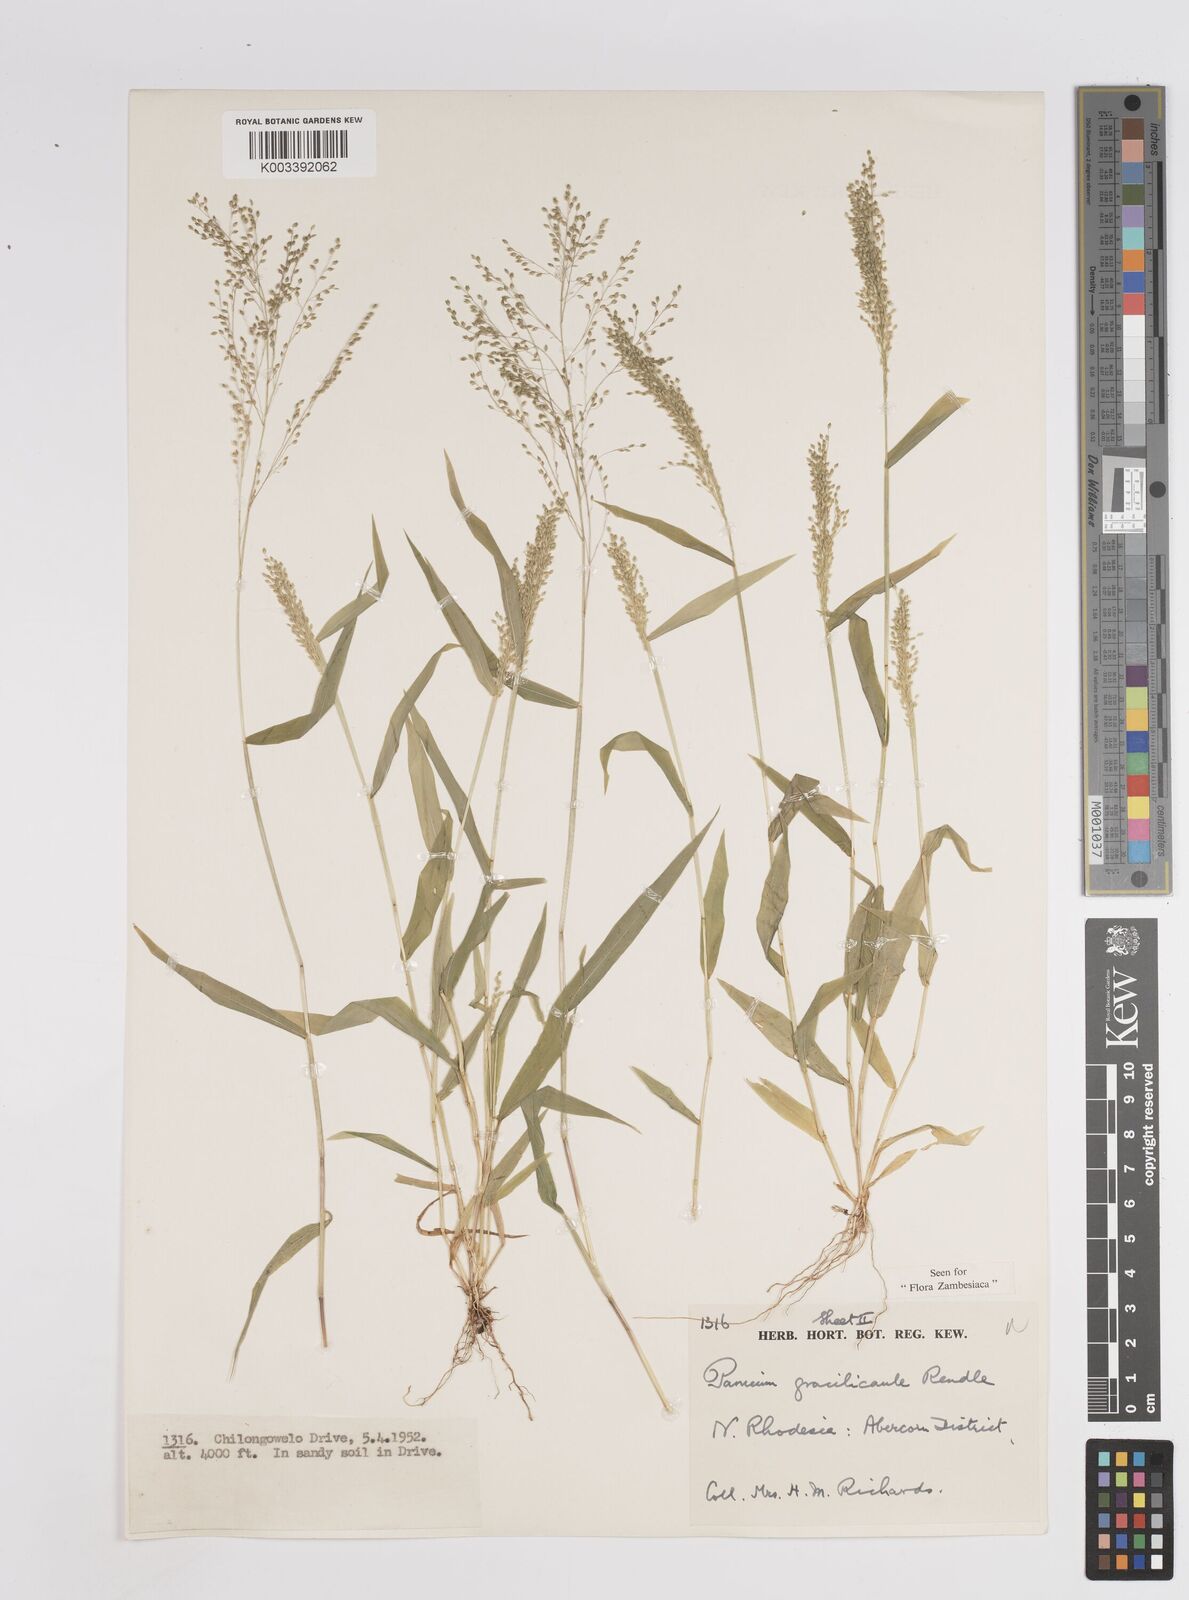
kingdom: Plantae
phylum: Tracheophyta
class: Liliopsida
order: Poales
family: Poaceae
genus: Trichanthecium
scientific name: Trichanthecium gracilicaule
